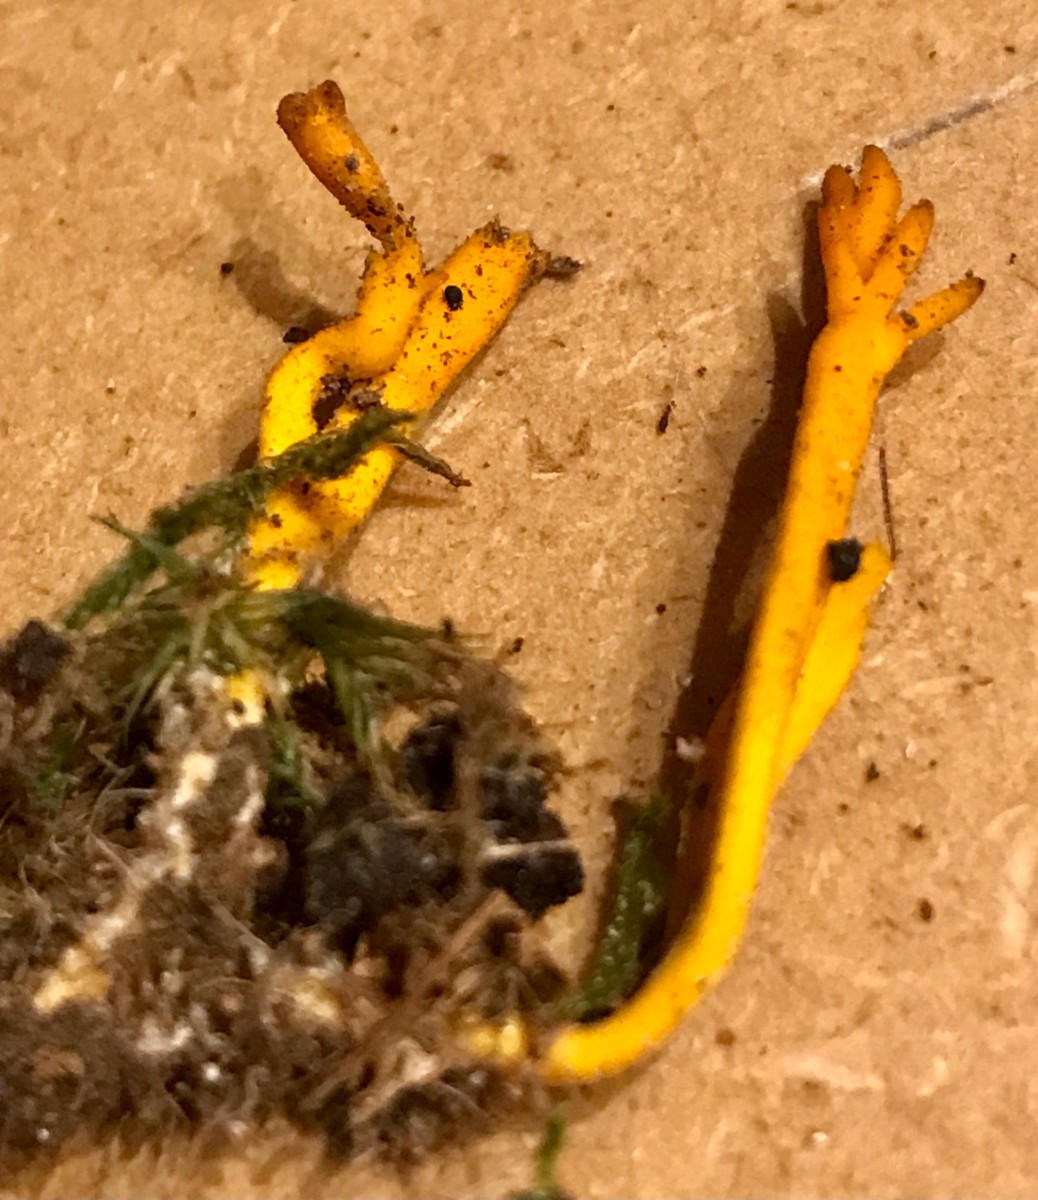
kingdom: Fungi
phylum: Basidiomycota
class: Dacrymycetes
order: Dacrymycetales
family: Dacrymycetaceae
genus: Calocera
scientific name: Calocera viscosa
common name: almindelig guldgaffel
